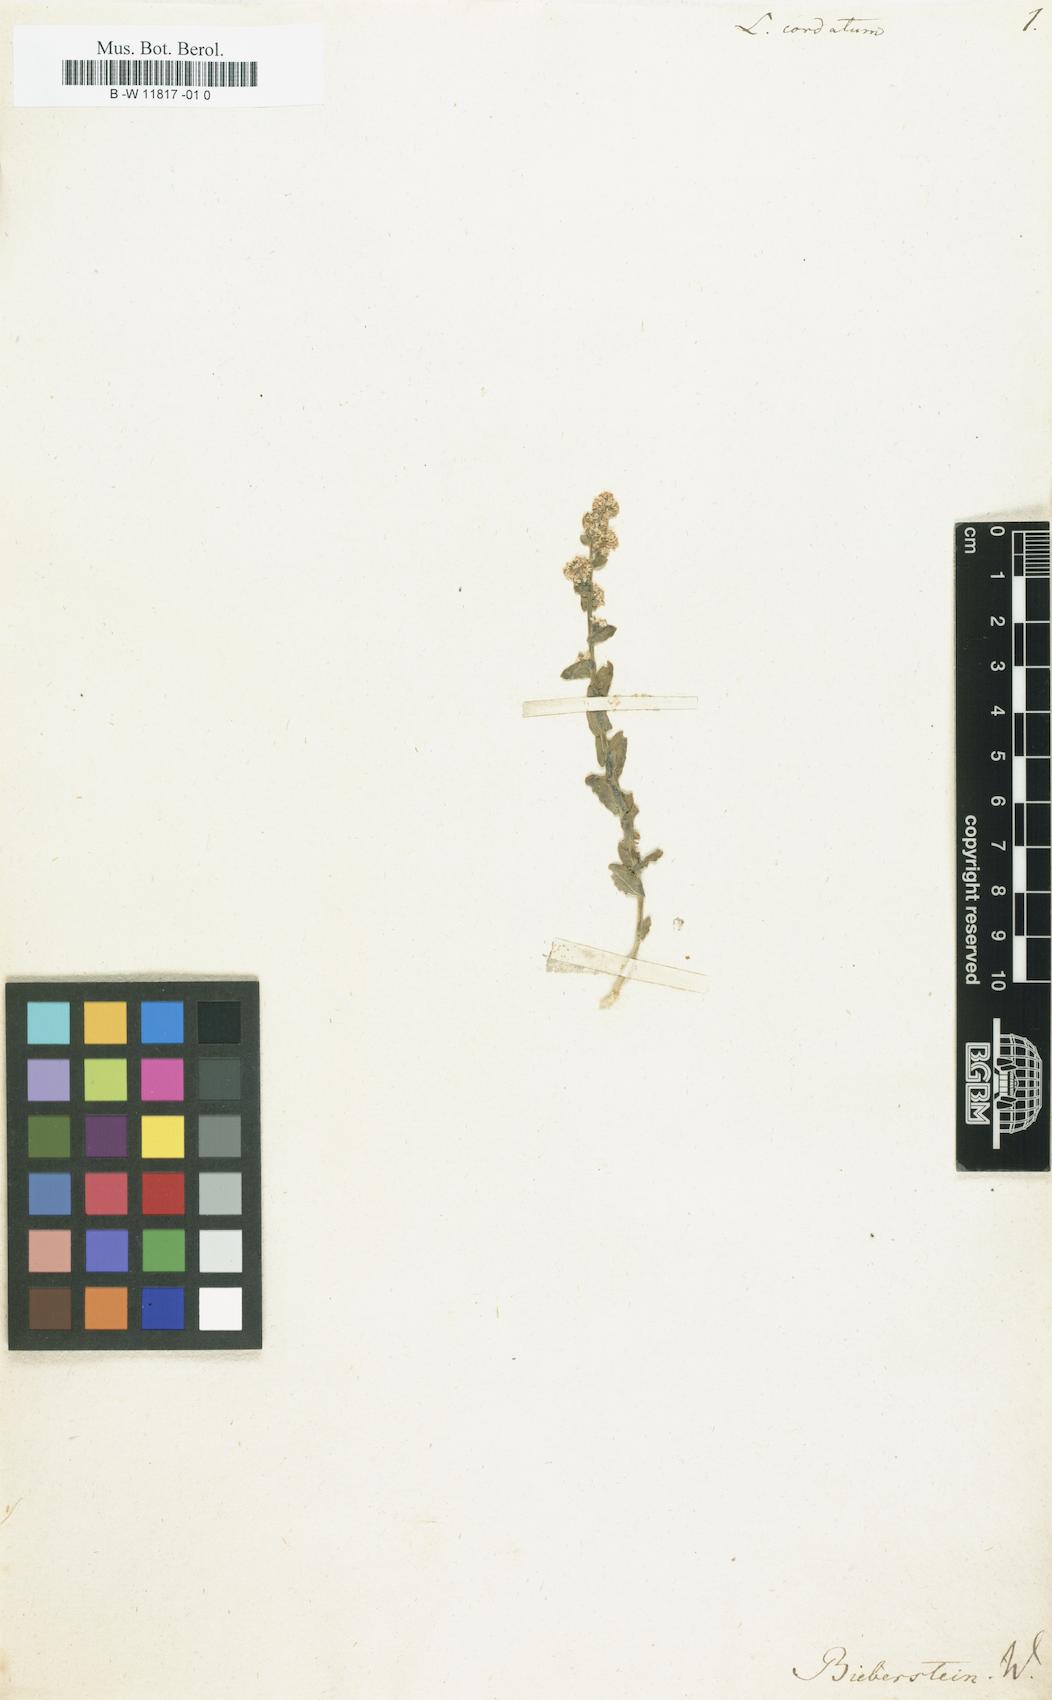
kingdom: Plantae
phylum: Tracheophyta
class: Magnoliopsida
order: Brassicales
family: Brassicaceae
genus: Lepidium
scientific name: Lepidium cordatum
